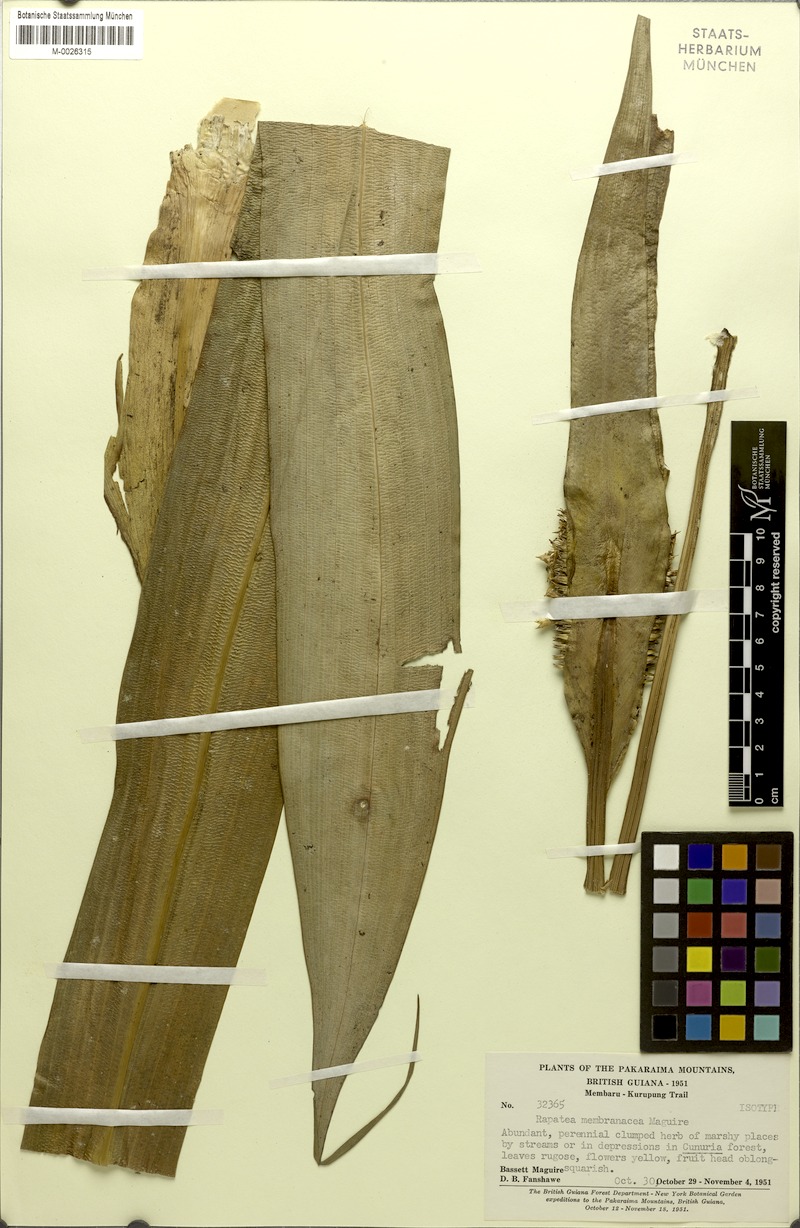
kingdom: Plantae
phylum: Tracheophyta
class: Liliopsida
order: Poales
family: Rapateaceae
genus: Rapatea
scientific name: Rapatea membranacea
